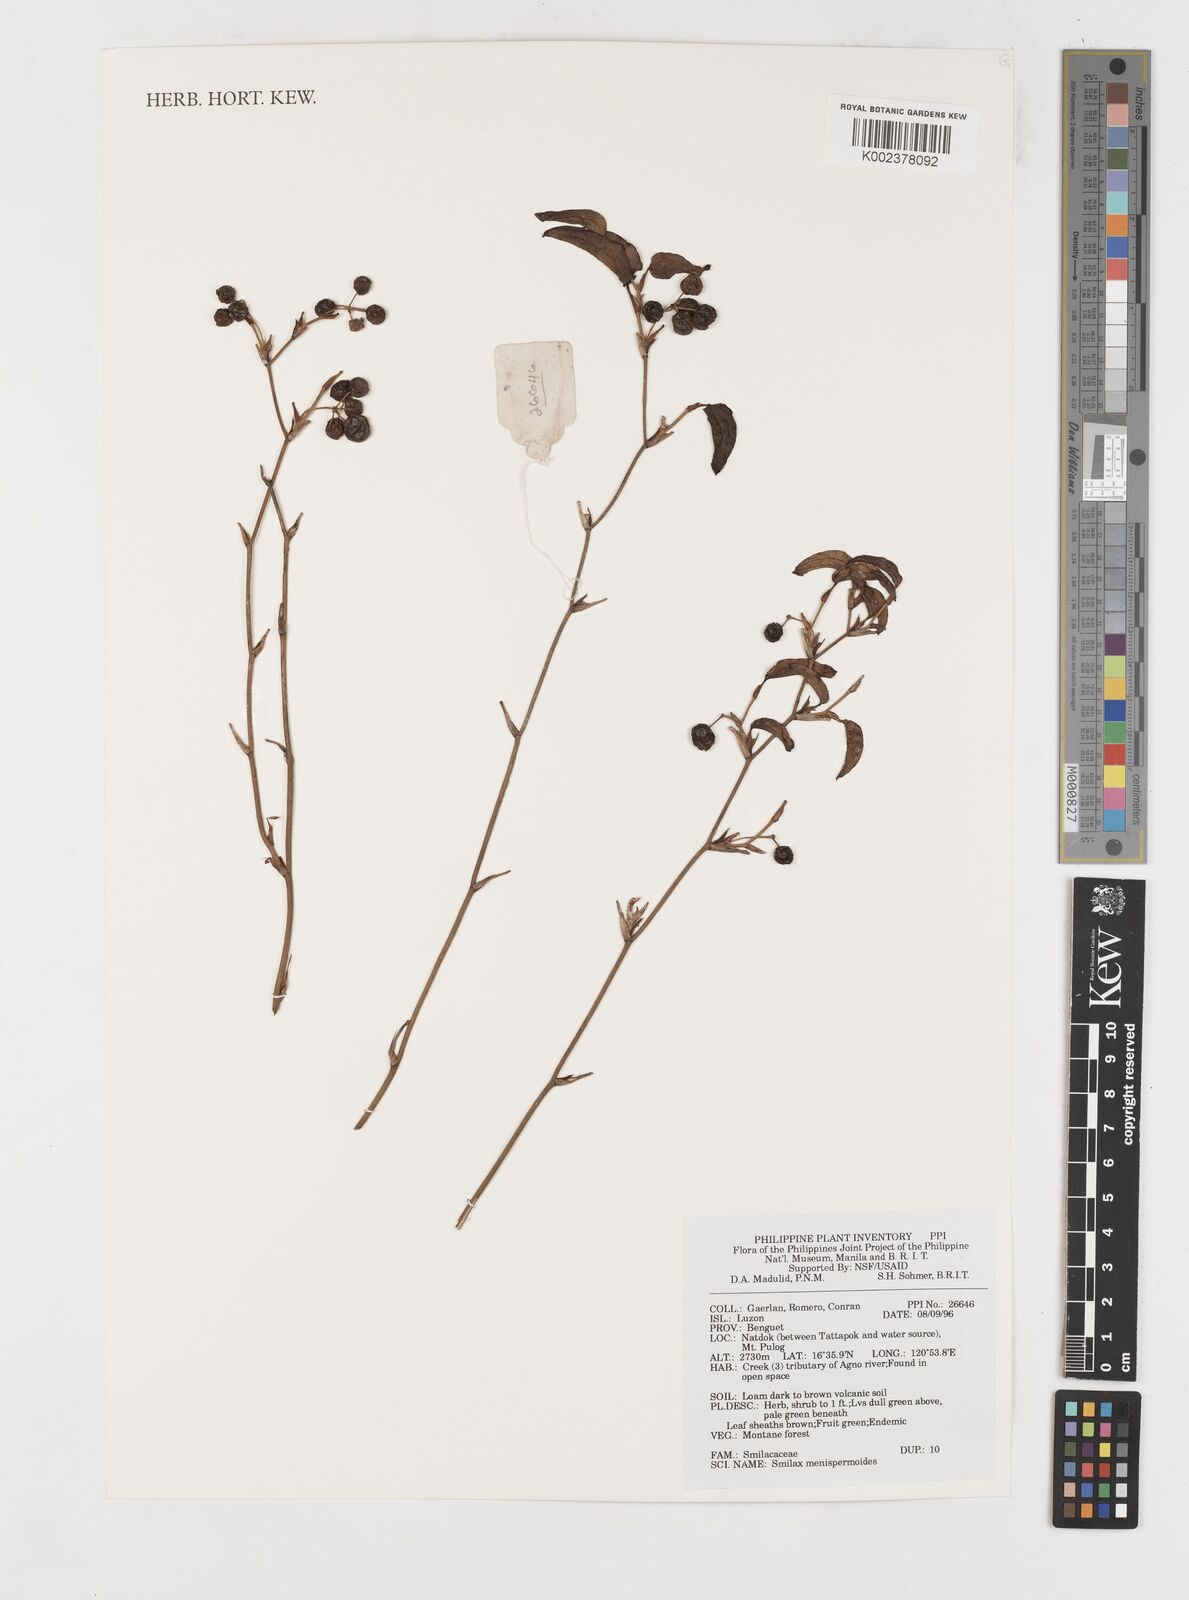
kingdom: Plantae
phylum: Tracheophyta
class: Liliopsida
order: Liliales
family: Smilacaceae
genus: Smilax
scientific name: Smilax menispermoidea
